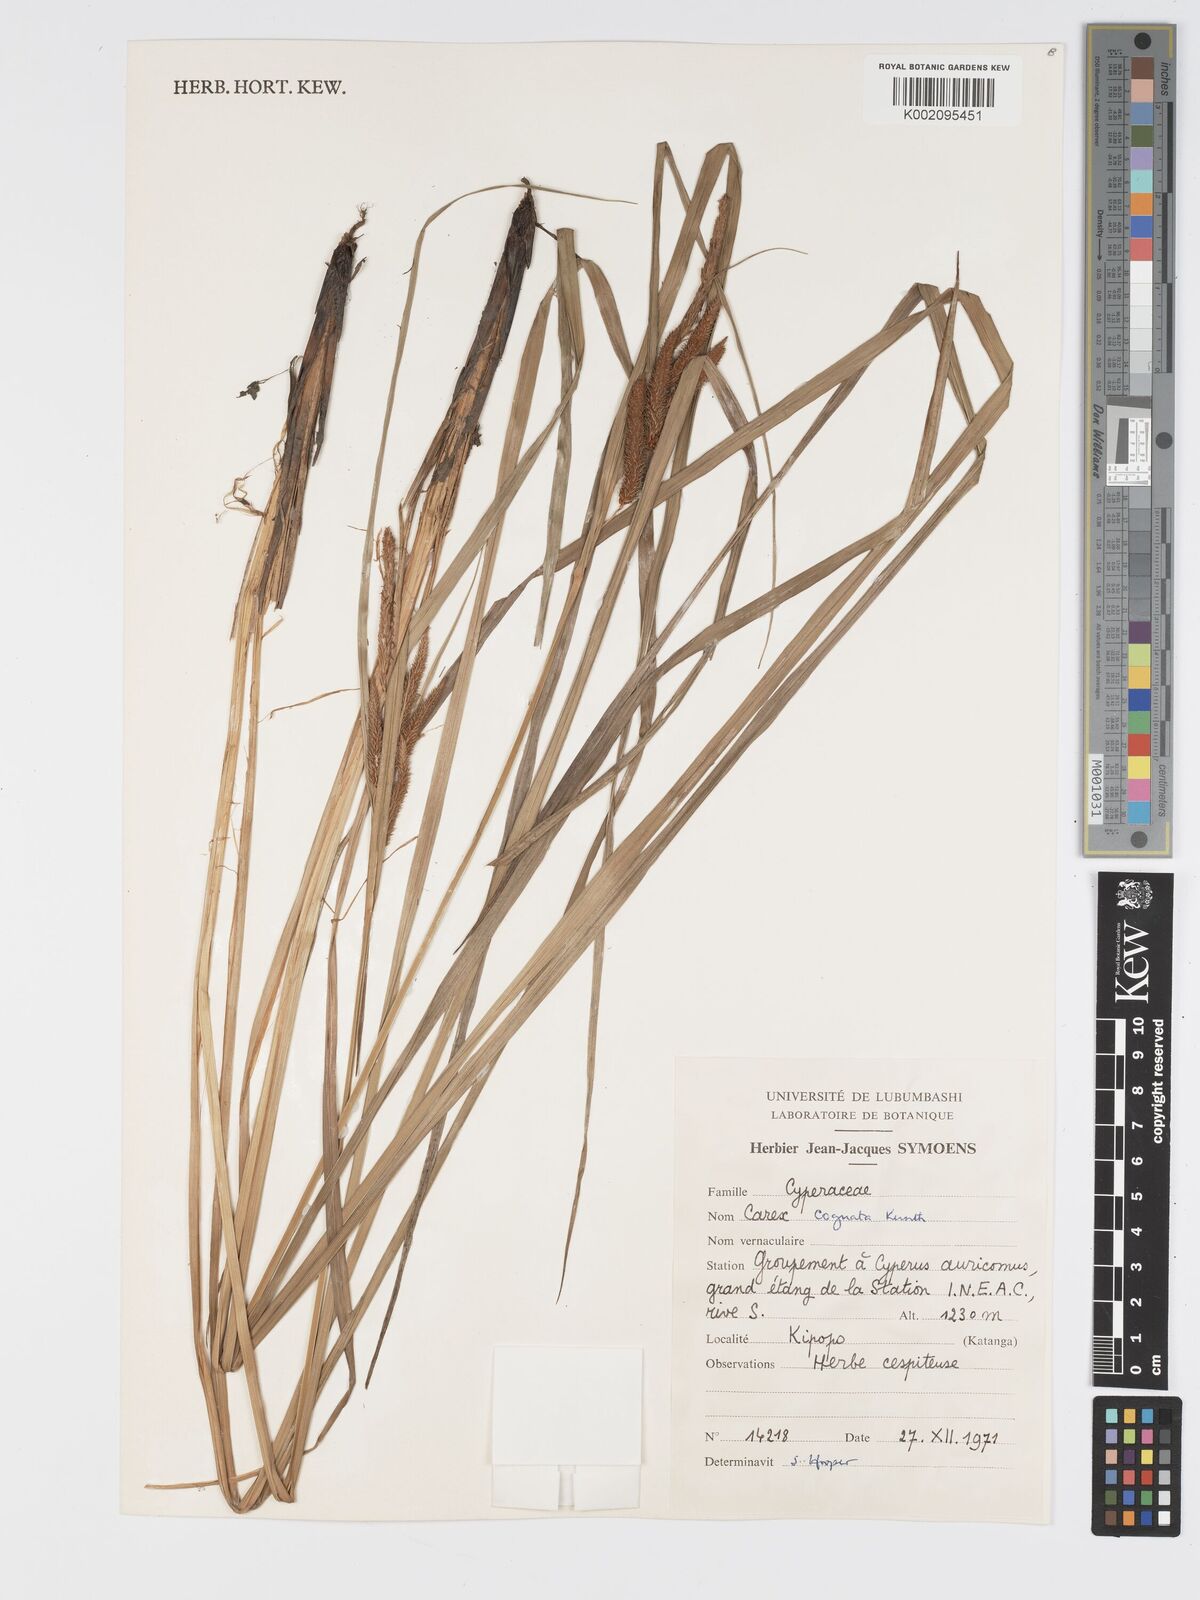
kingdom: Plantae
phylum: Tracheophyta
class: Liliopsida
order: Poales
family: Cyperaceae
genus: Carex
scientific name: Carex cognata
